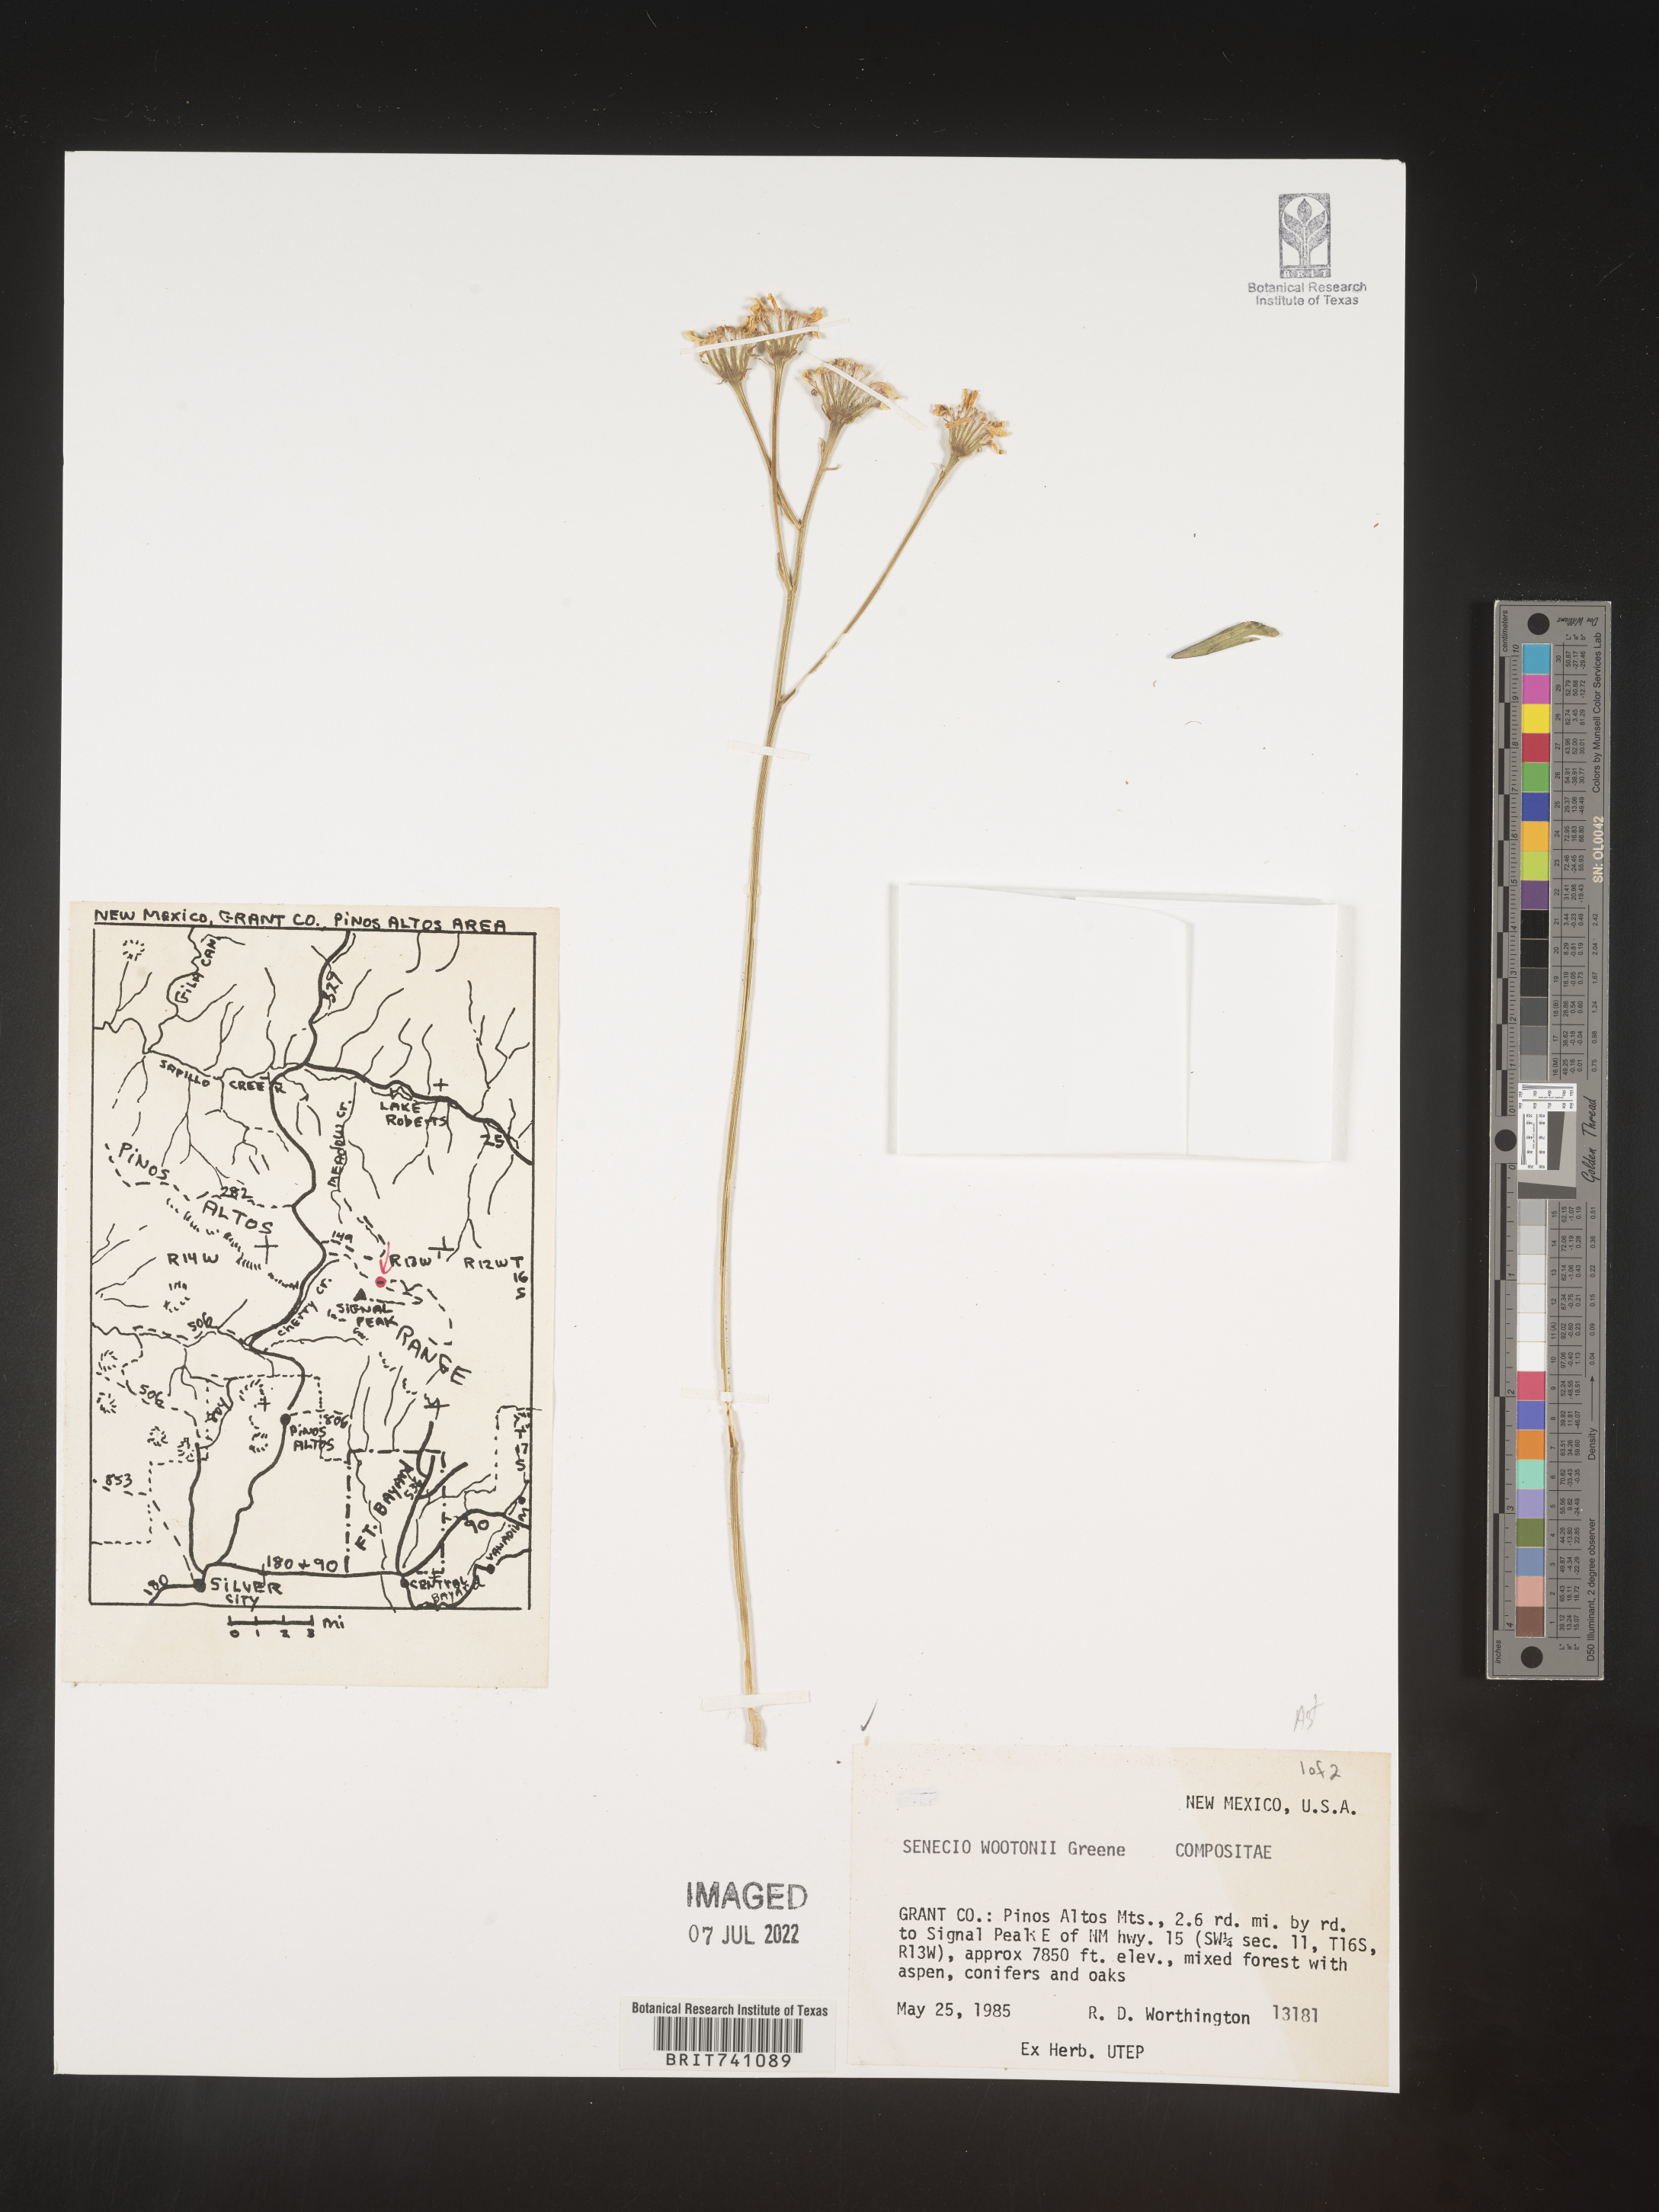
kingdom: Plantae
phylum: Tracheophyta
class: Magnoliopsida
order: Asterales
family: Asteraceae
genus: Senecio
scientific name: Senecio wootonii
